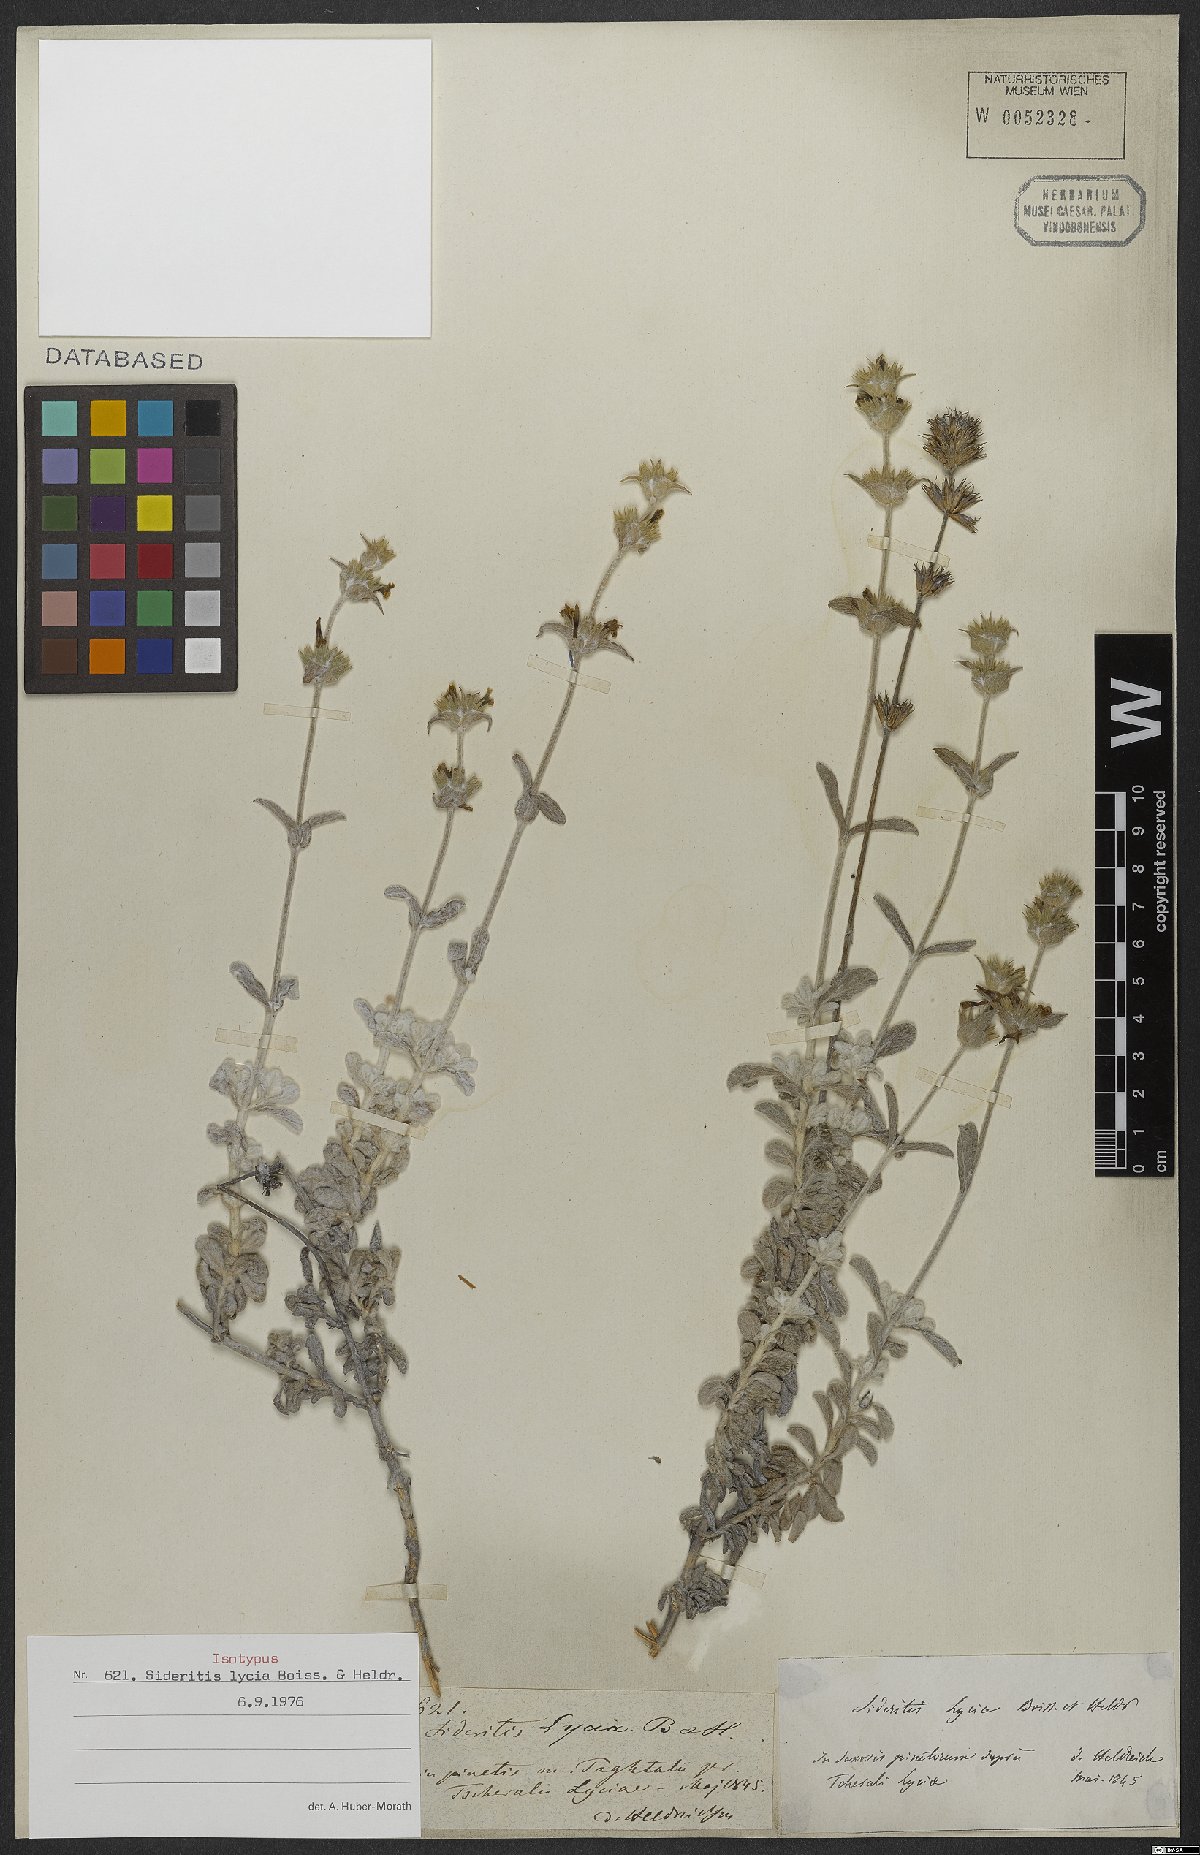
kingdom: Plantae
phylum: Tracheophyta
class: Magnoliopsida
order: Lamiales
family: Lamiaceae
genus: Sideritis
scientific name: Sideritis lycia
